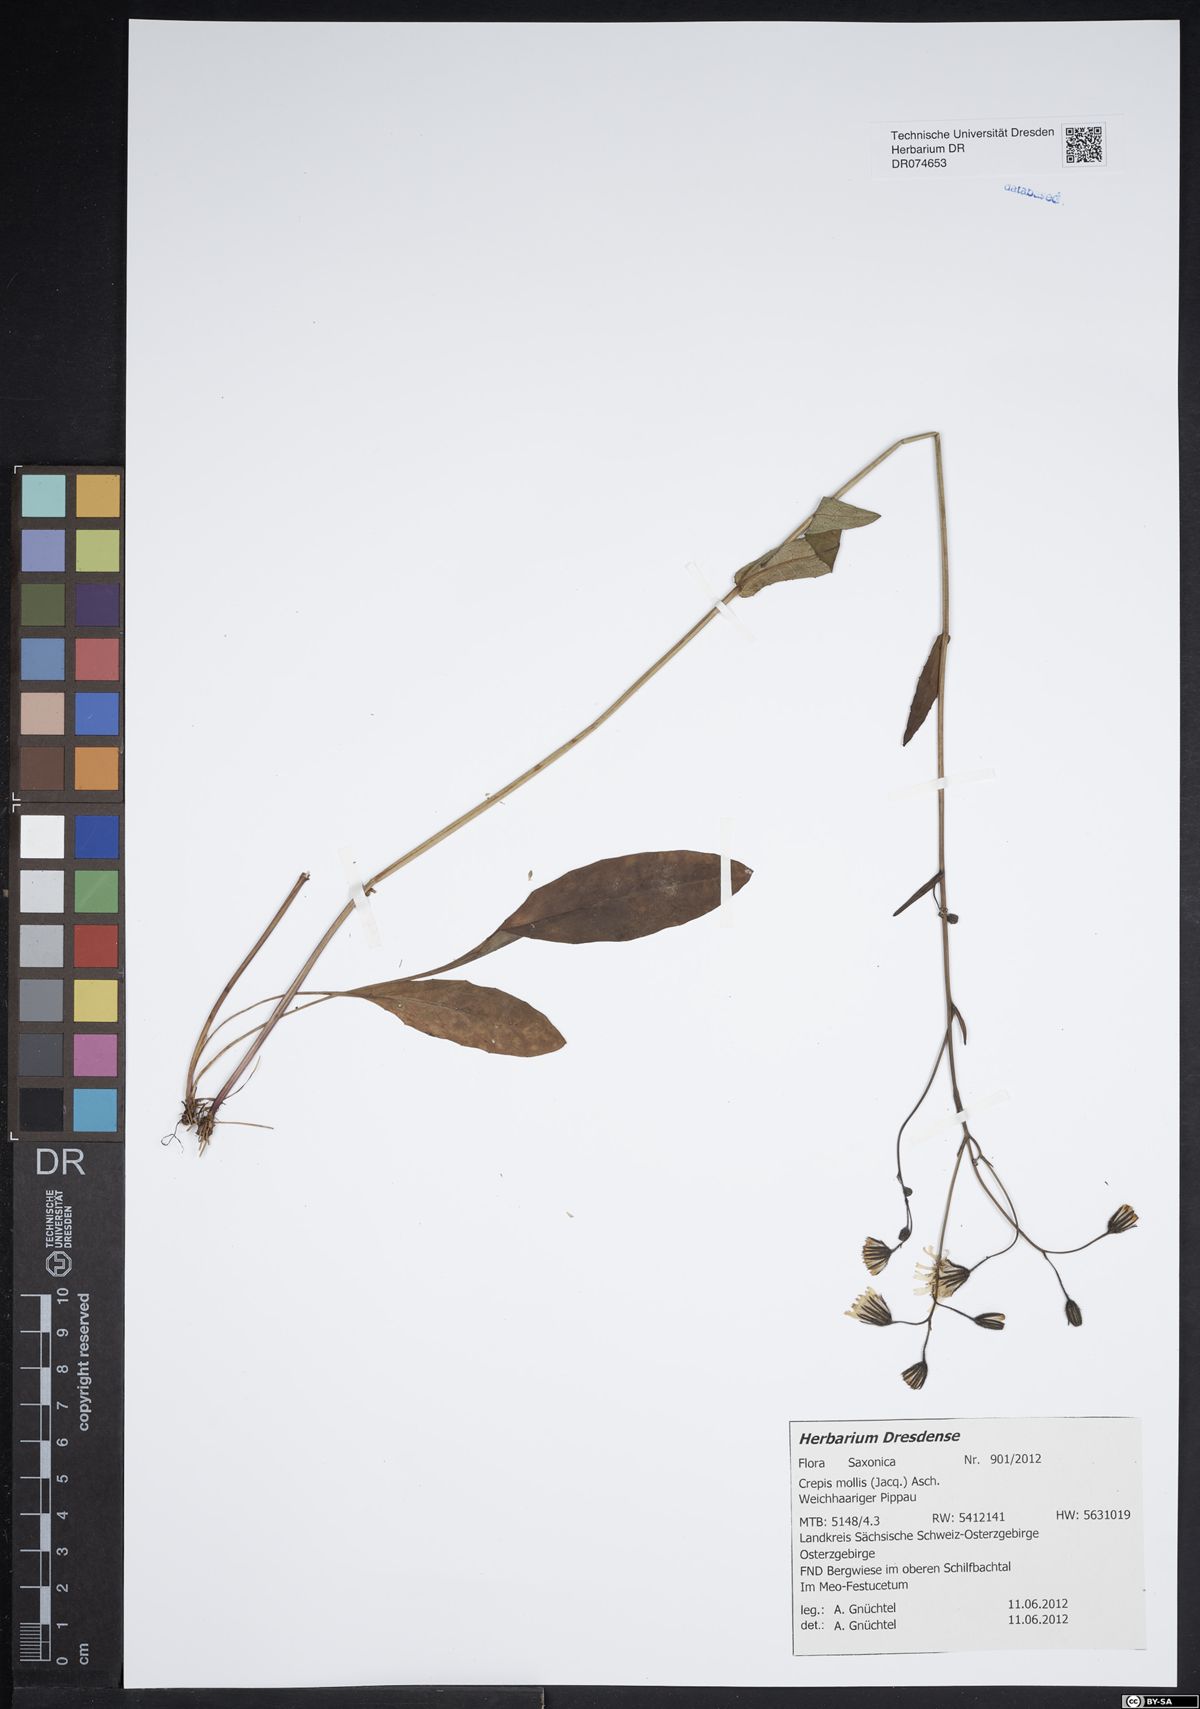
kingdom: Plantae
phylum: Tracheophyta
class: Magnoliopsida
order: Asterales
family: Asteraceae
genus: Crepis
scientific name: Crepis biennis
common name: Rough hawk's-beard
